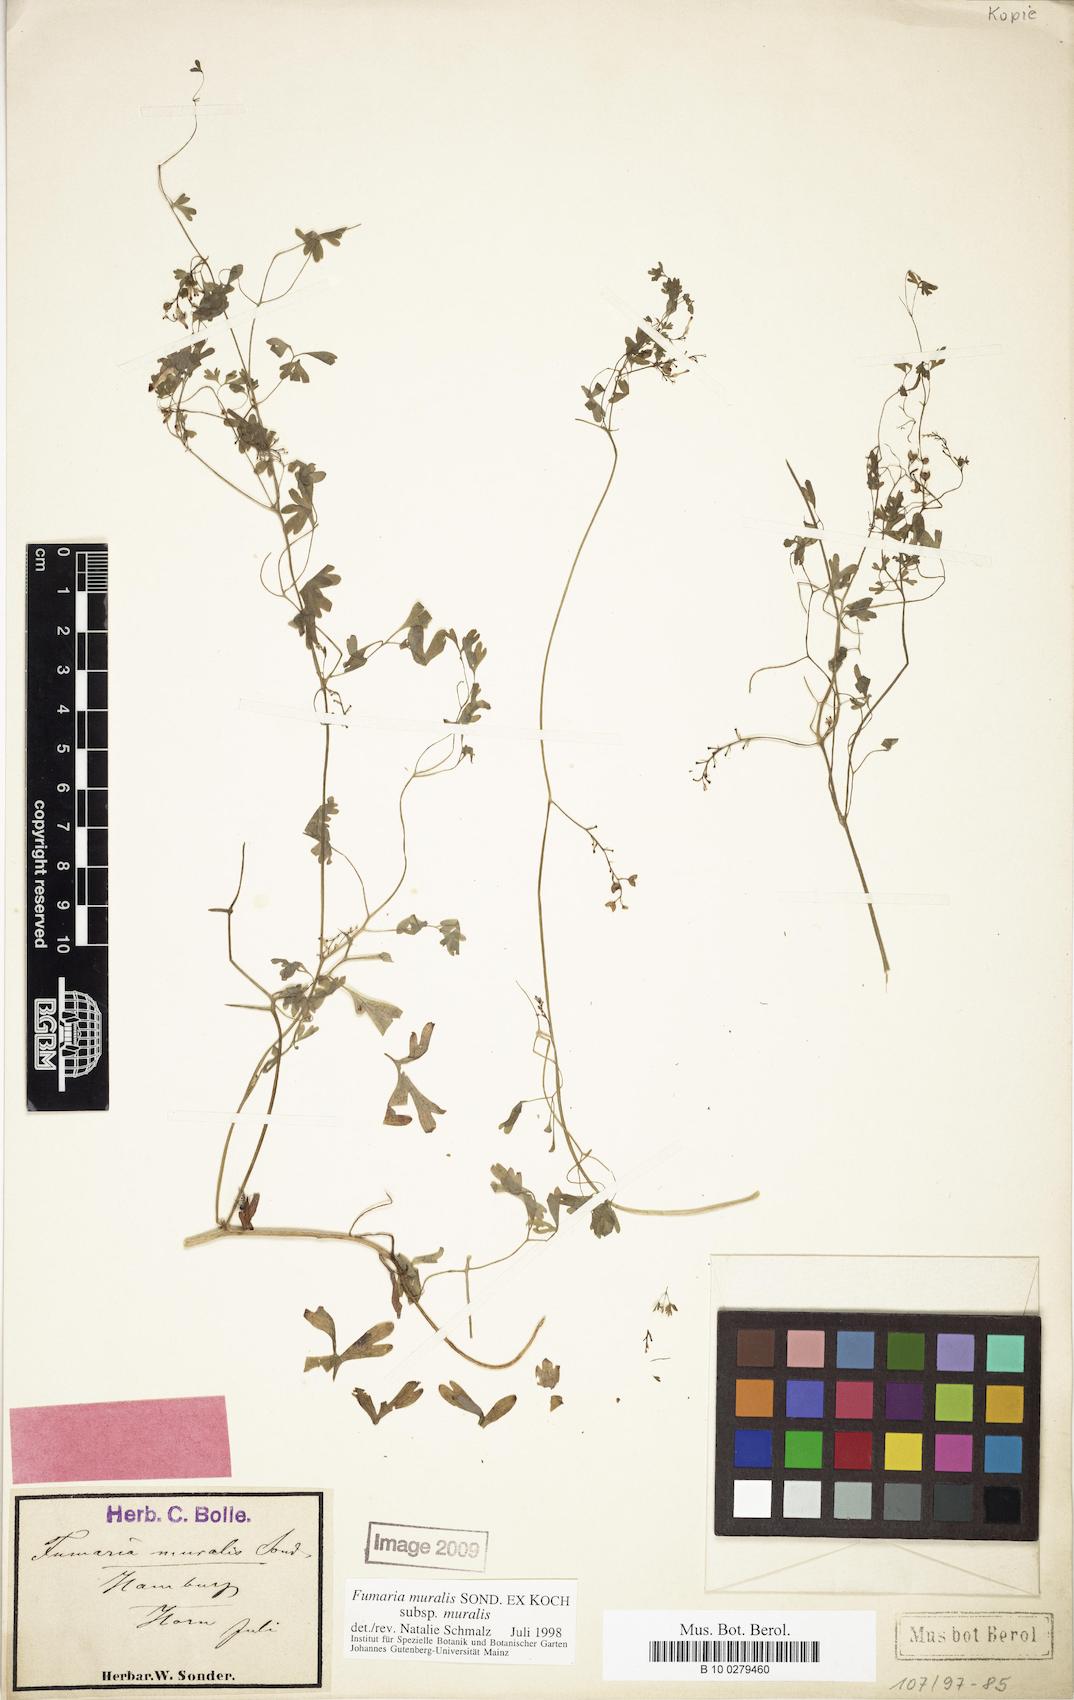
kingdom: Plantae
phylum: Tracheophyta
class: Magnoliopsida
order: Ranunculales
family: Papaveraceae
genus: Fumaria
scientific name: Fumaria muralis
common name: Common ramping-fumitory
